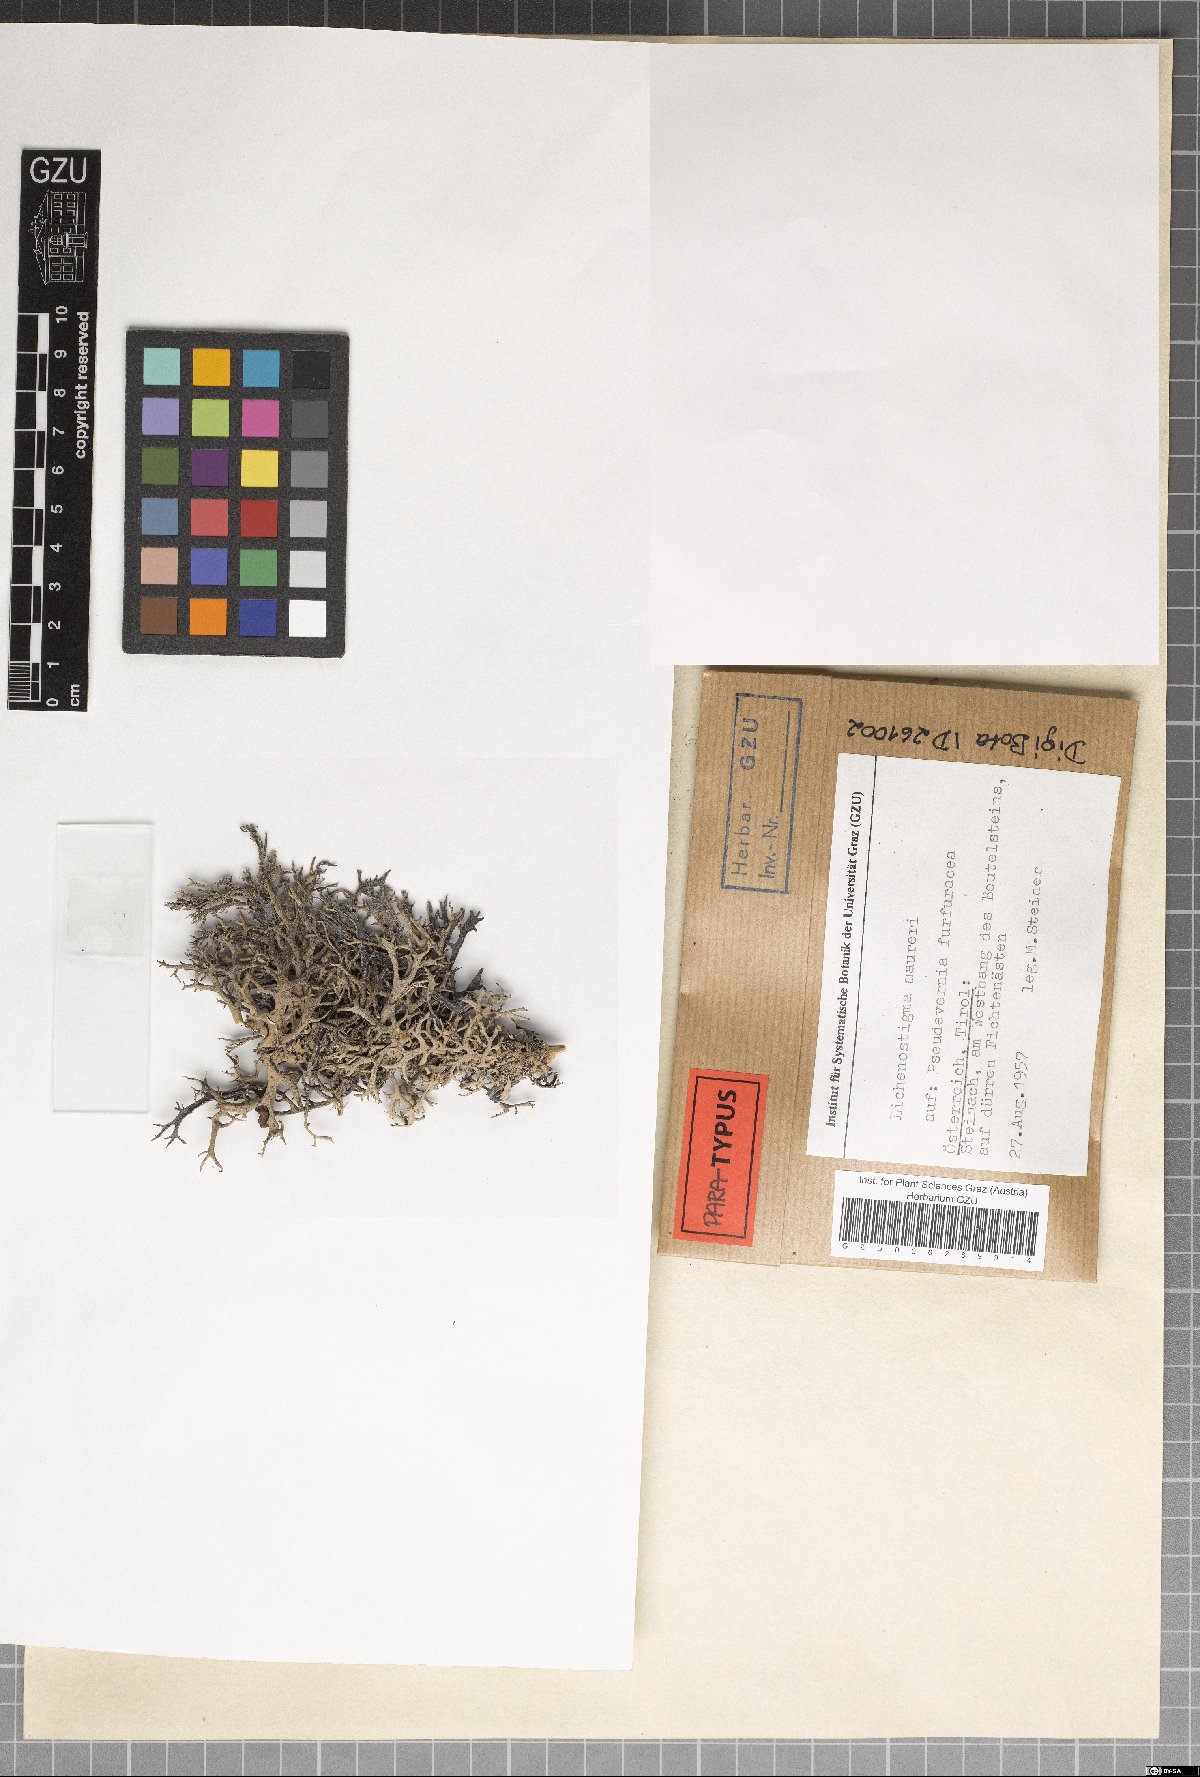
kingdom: Fungi
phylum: Ascomycota
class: Arthoniomycetes
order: Lichenostigmatales
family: Phaeococcomycetaceae
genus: Lichenostigma
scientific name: Lichenostigma maureri
